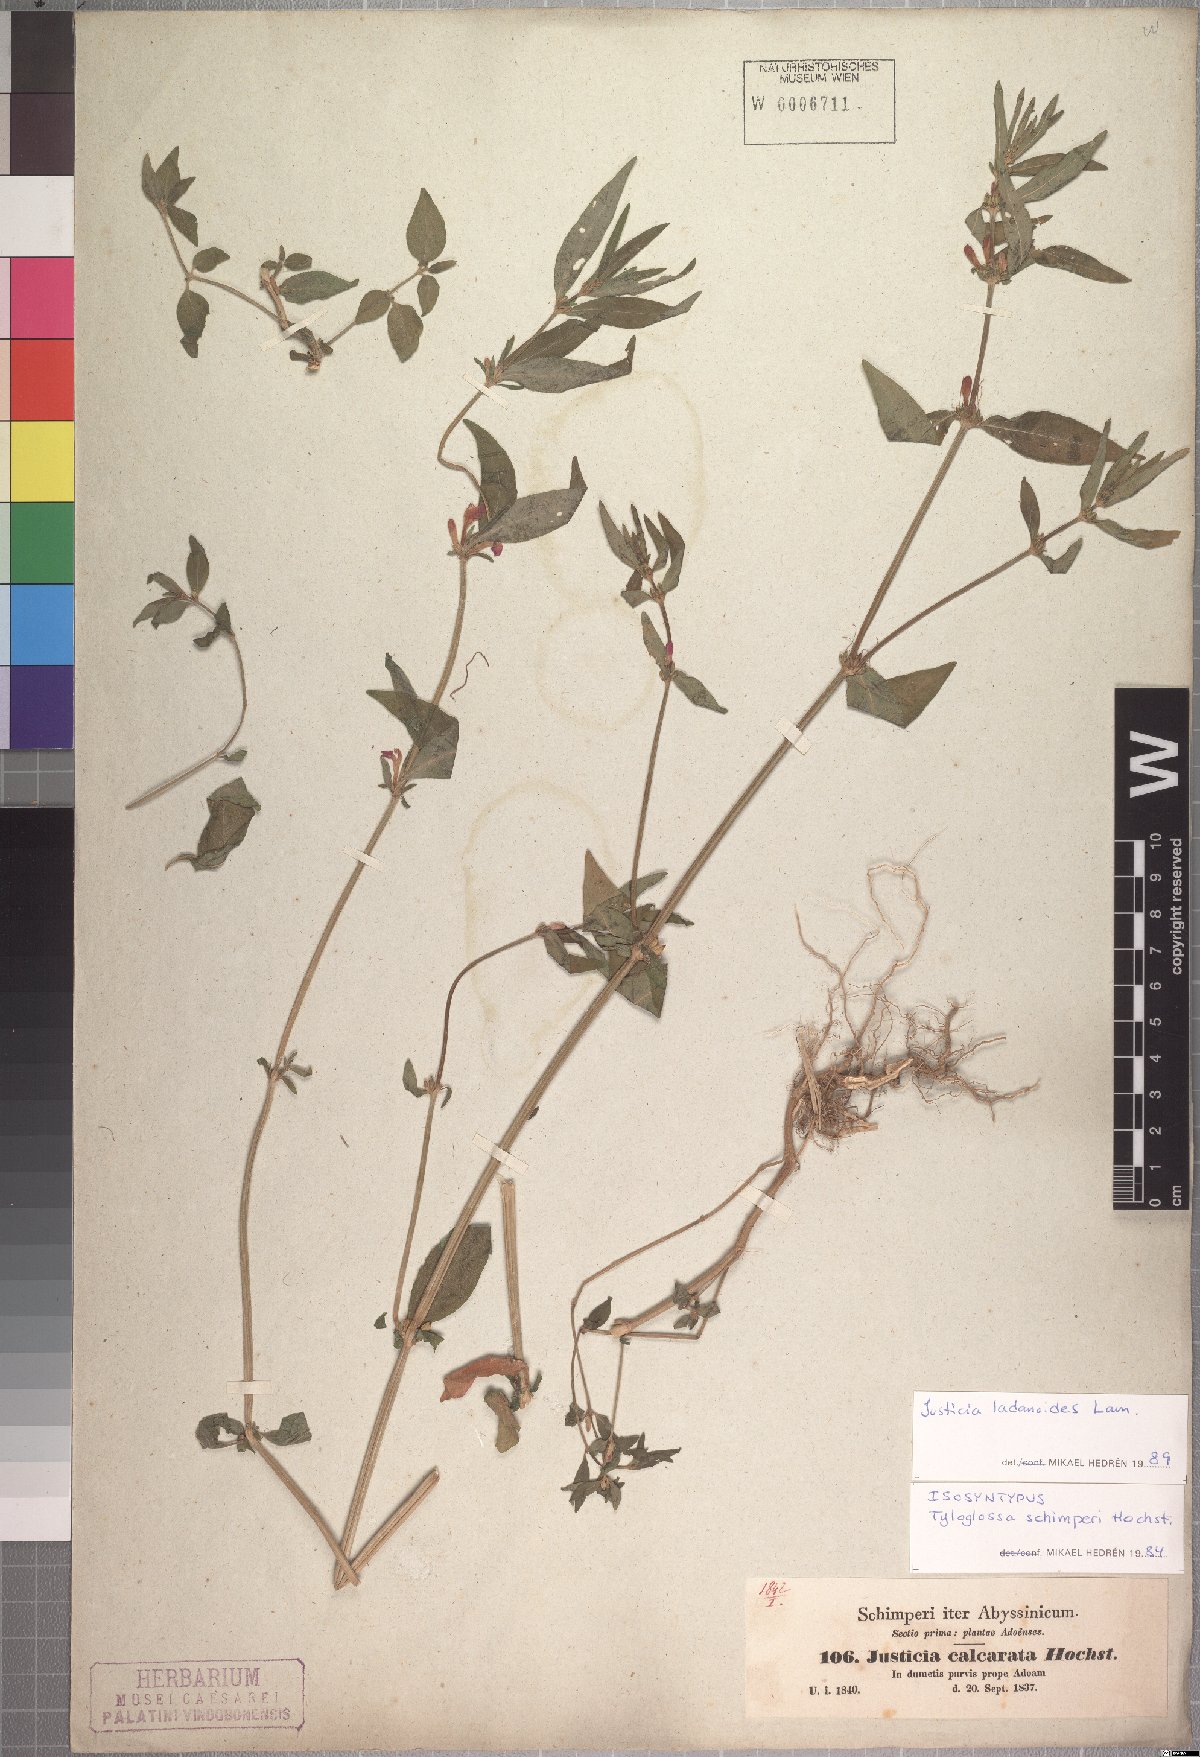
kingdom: Plantae
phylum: Tracheophyta
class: Magnoliopsida
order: Lamiales
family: Acanthaceae
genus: Justicia
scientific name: Justicia ladanoides
